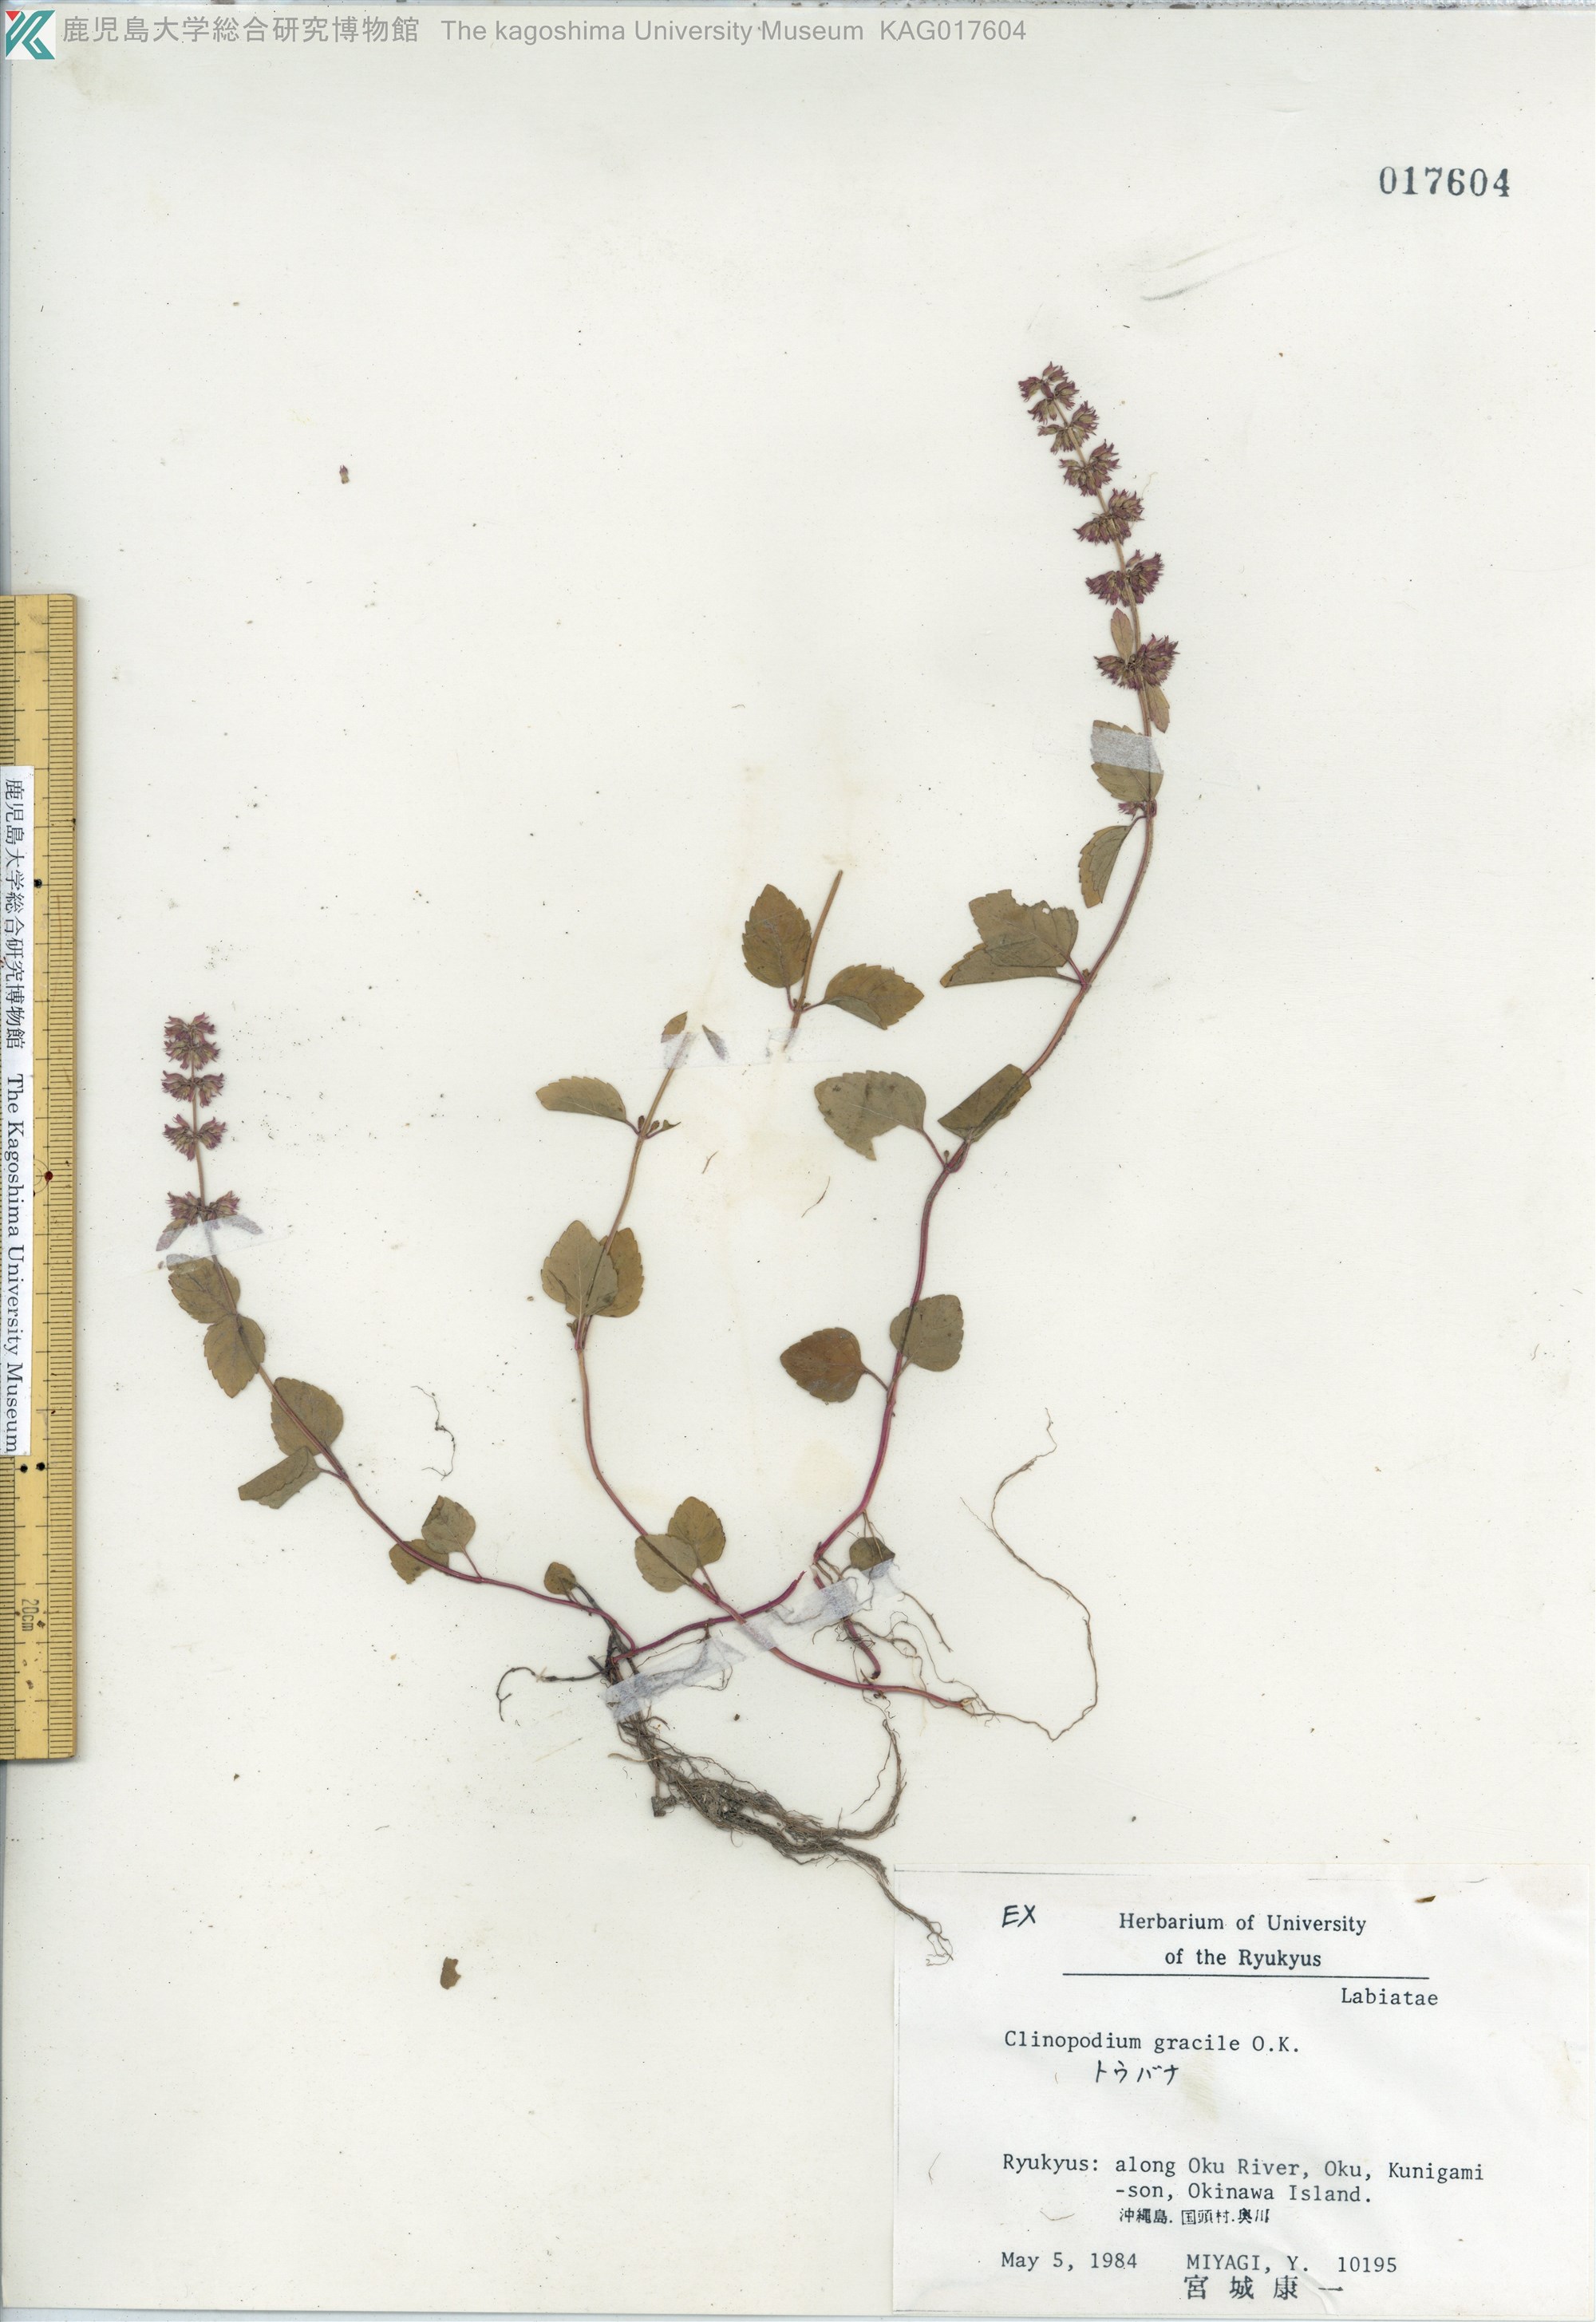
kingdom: Plantae
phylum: Tracheophyta
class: Magnoliopsida
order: Lamiales
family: Lamiaceae
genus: Clinopodium
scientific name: Clinopodium gracile
